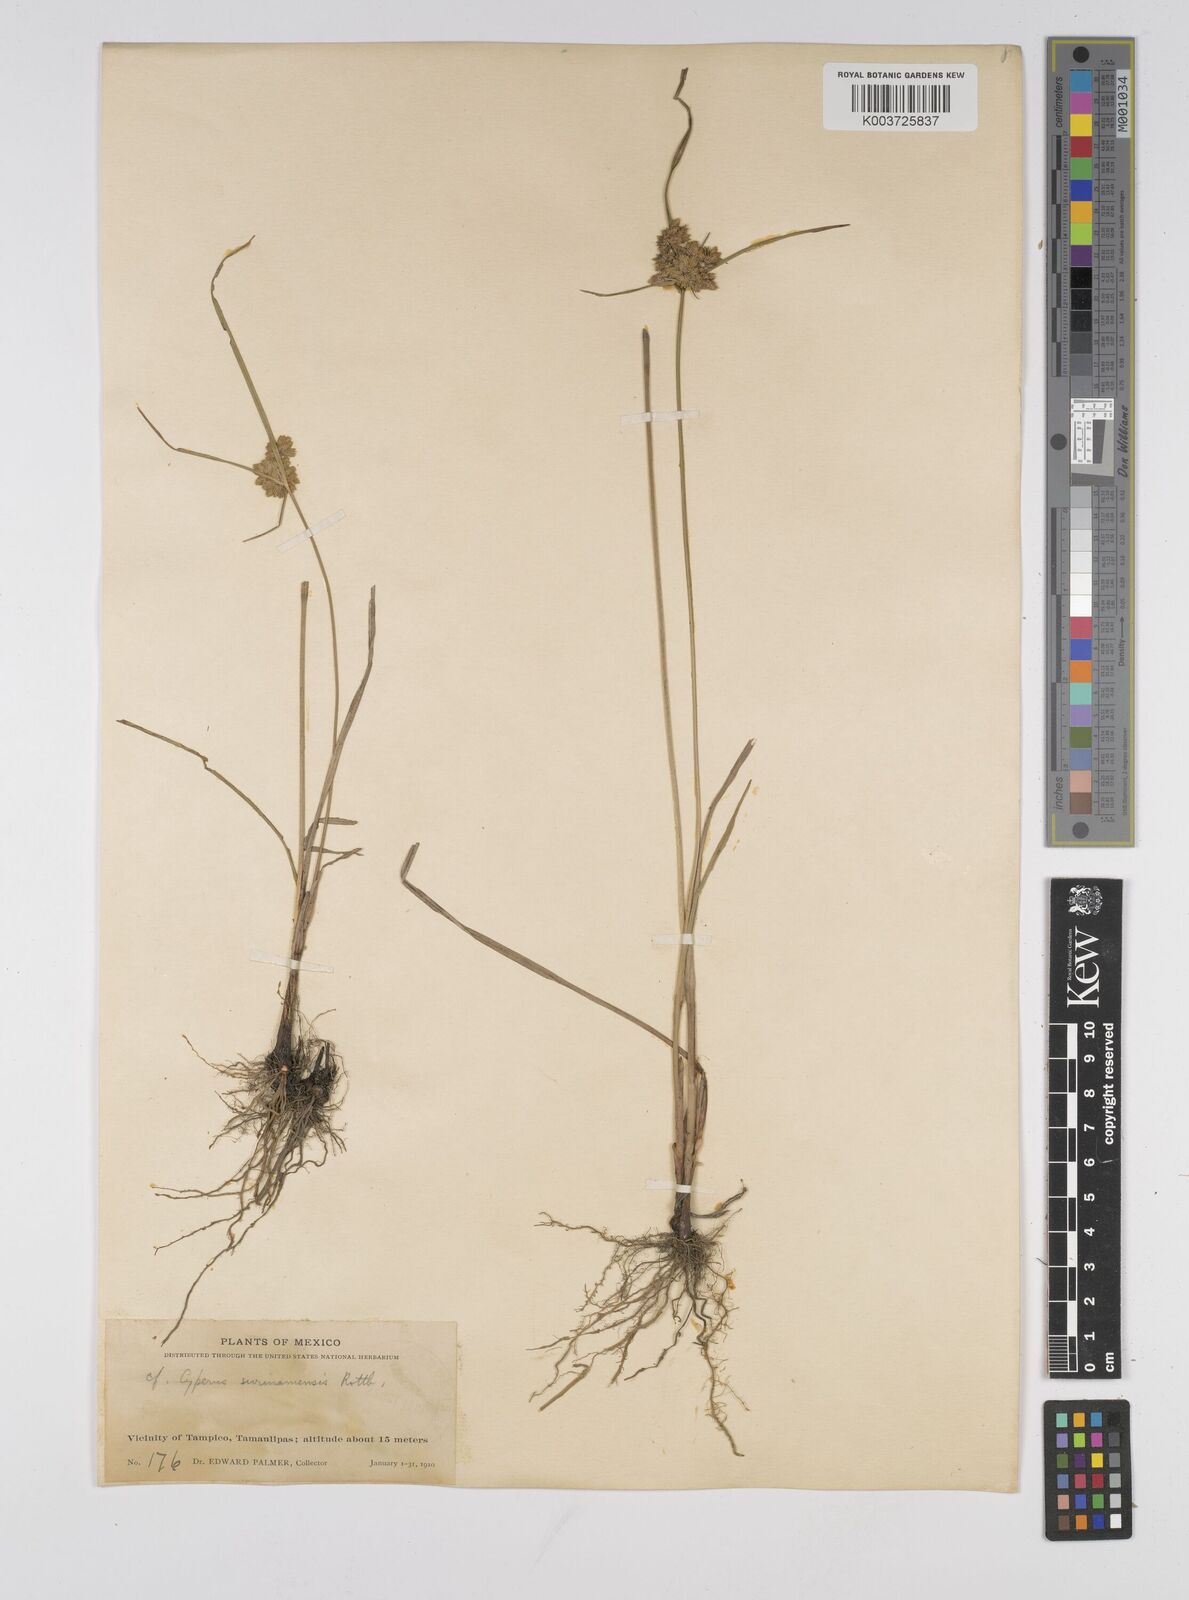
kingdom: Plantae
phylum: Tracheophyta
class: Liliopsida
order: Poales
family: Cyperaceae
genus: Cyperus
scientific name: Cyperus surinamensis
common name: Tropical flat sedge
